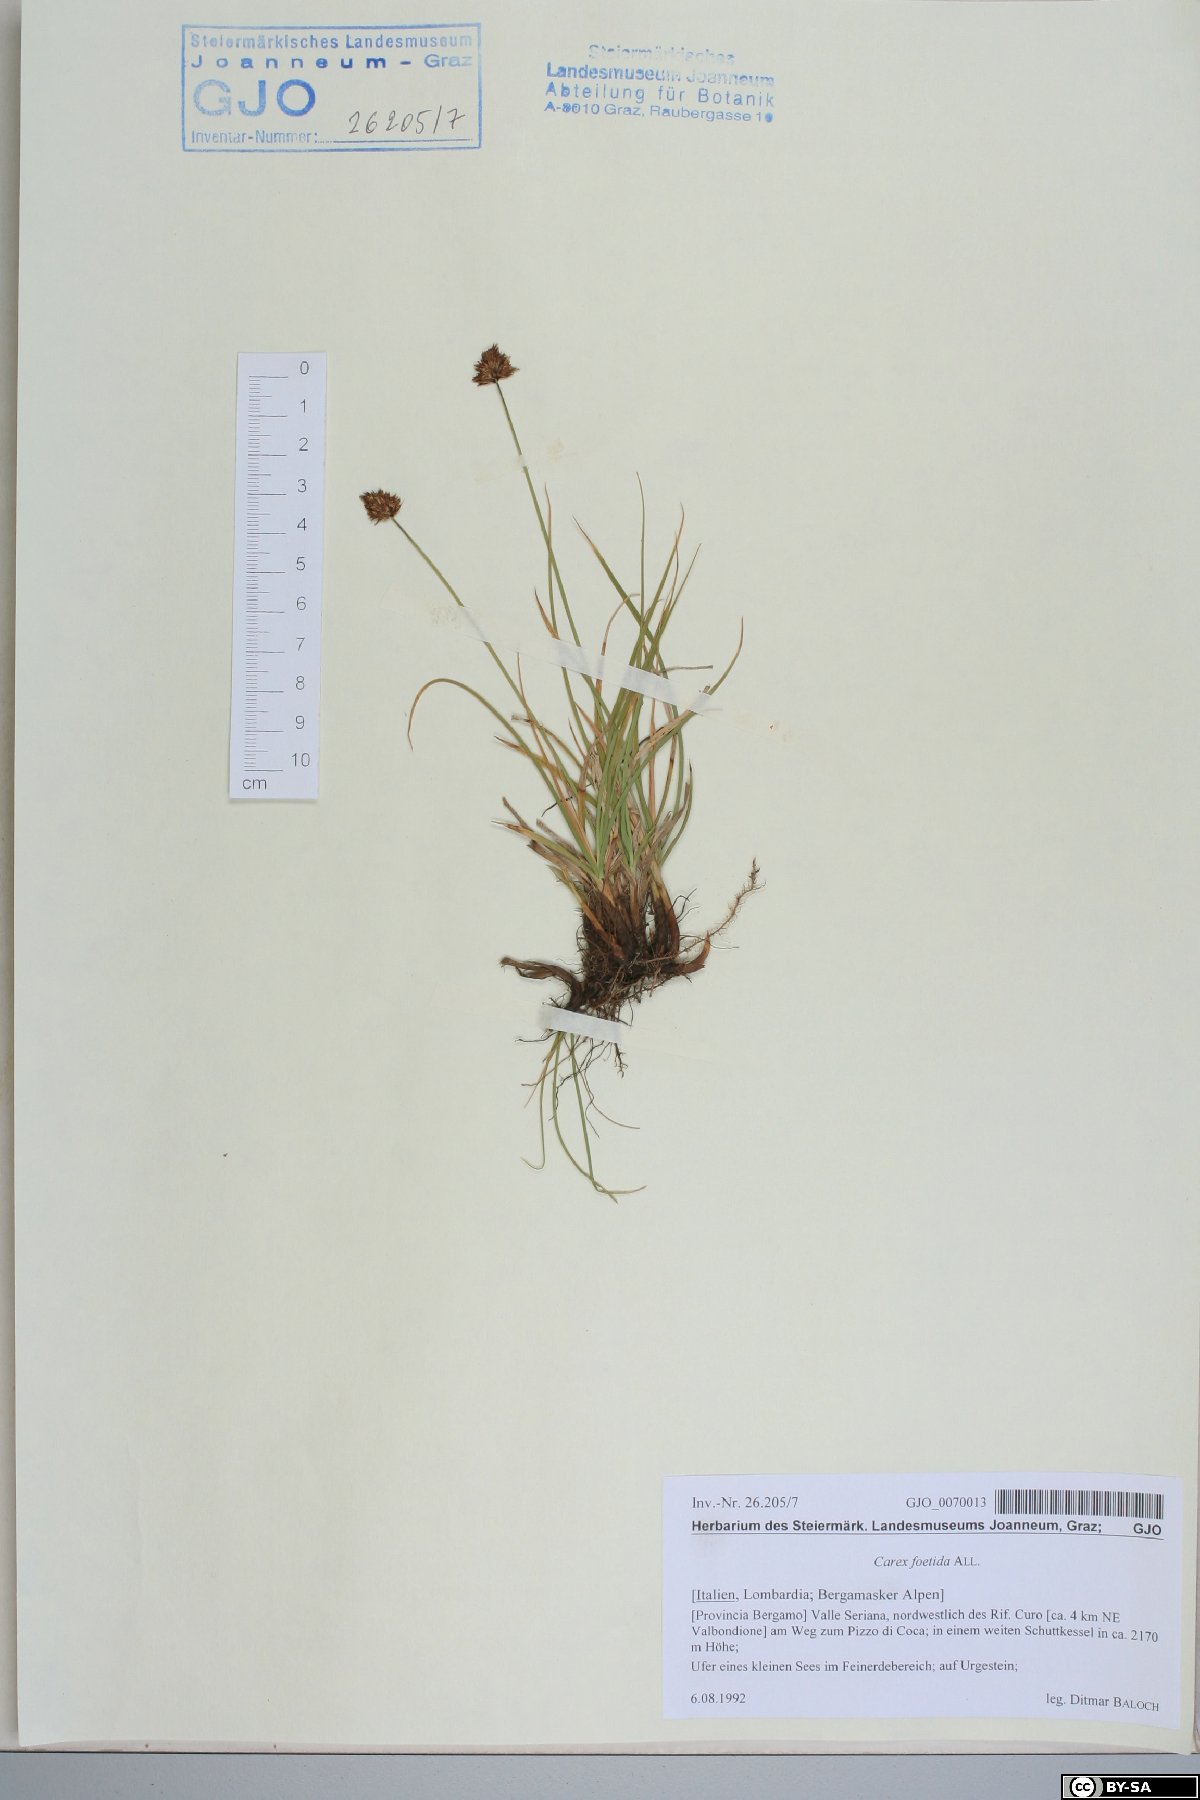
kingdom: Plantae
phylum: Tracheophyta
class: Liliopsida
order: Poales
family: Cyperaceae
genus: Carex
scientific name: Carex foetida
